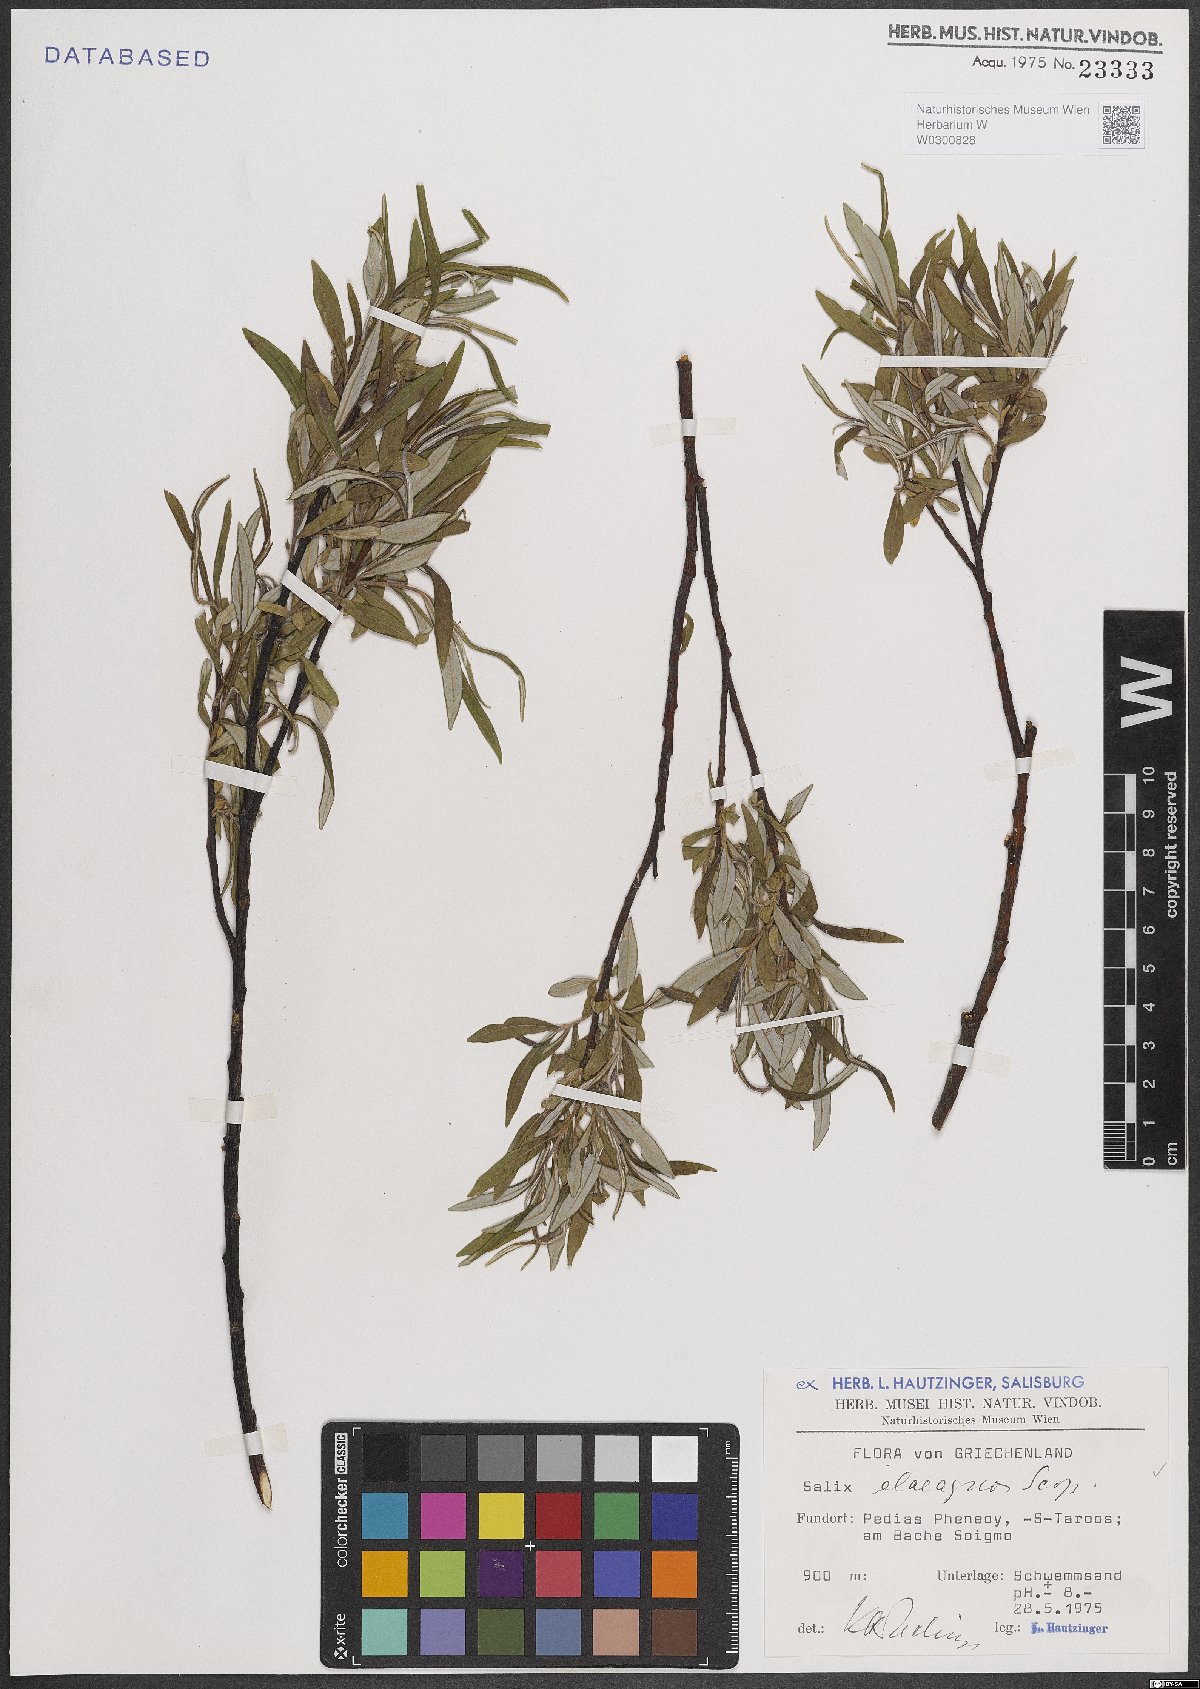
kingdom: Plantae
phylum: Tracheophyta
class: Magnoliopsida
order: Malpighiales
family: Salicaceae
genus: Salix
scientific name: Salix eleagnos
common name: Elaeagnus willow
